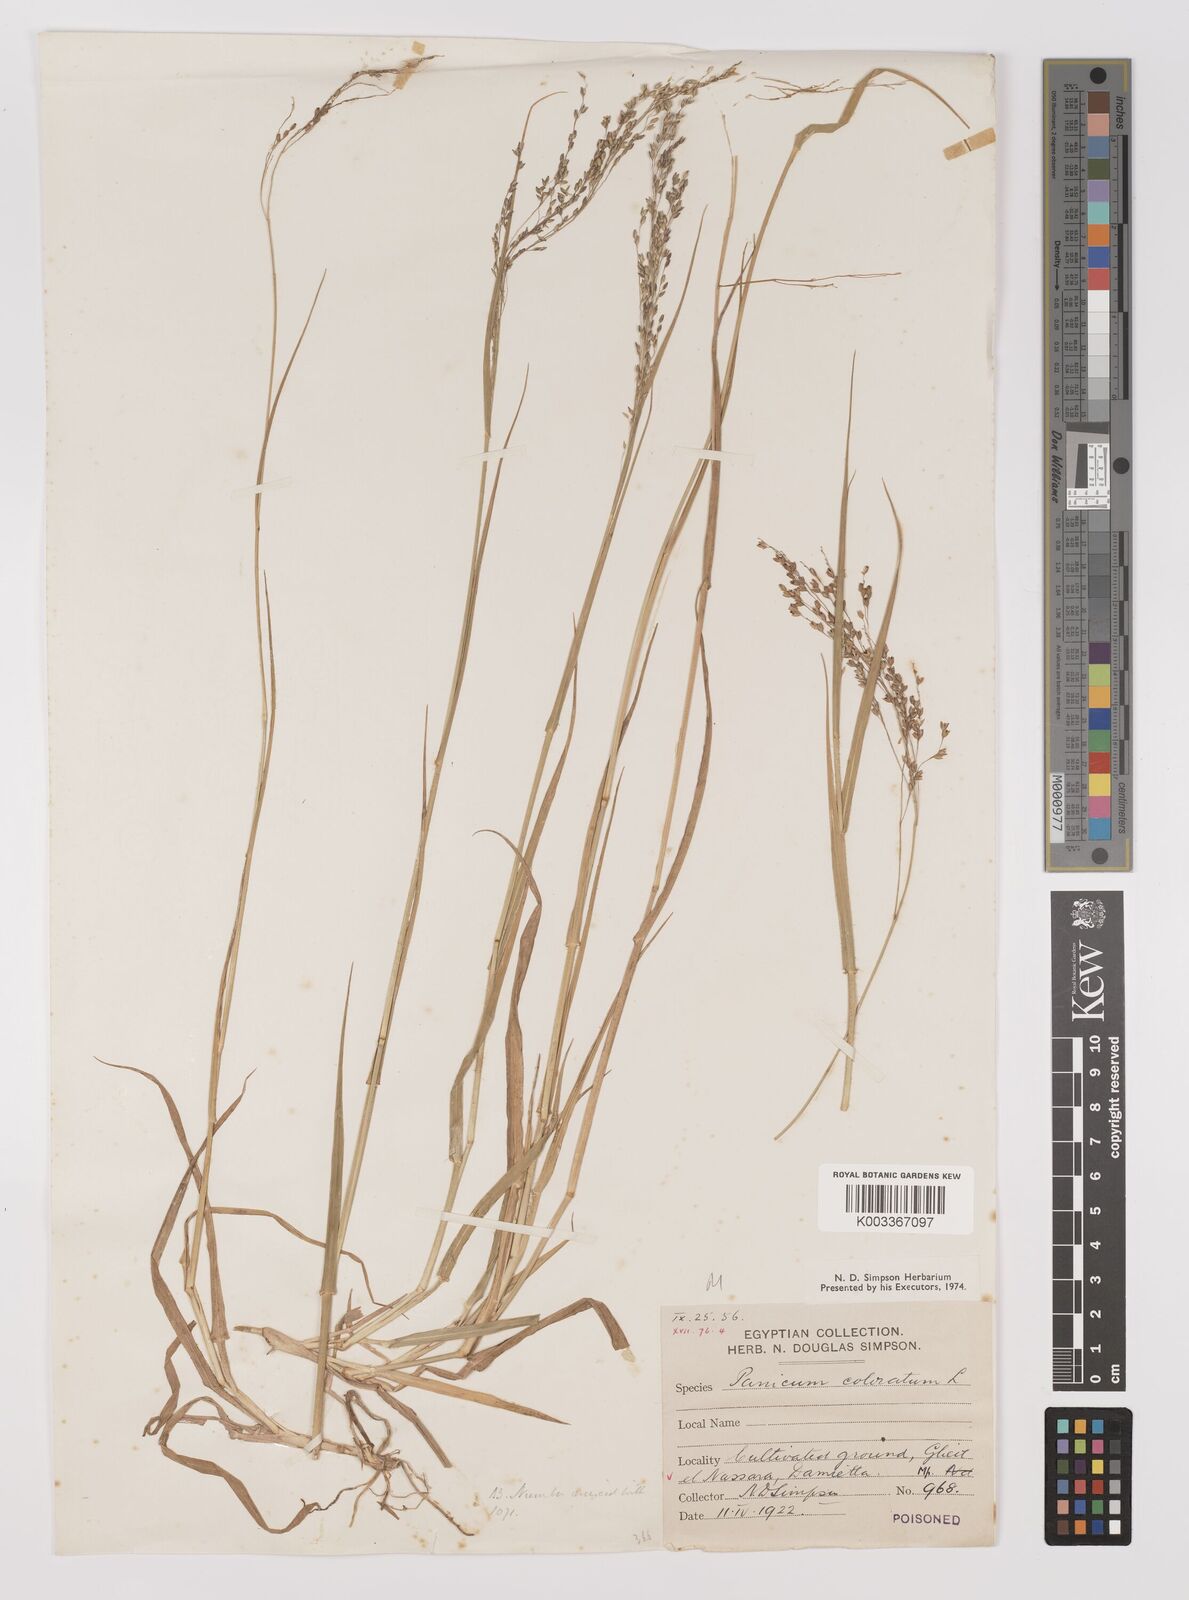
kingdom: Plantae
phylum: Tracheophyta
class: Liliopsida
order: Poales
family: Poaceae
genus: Panicum
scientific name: Panicum coloratum
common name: Kleingrass
